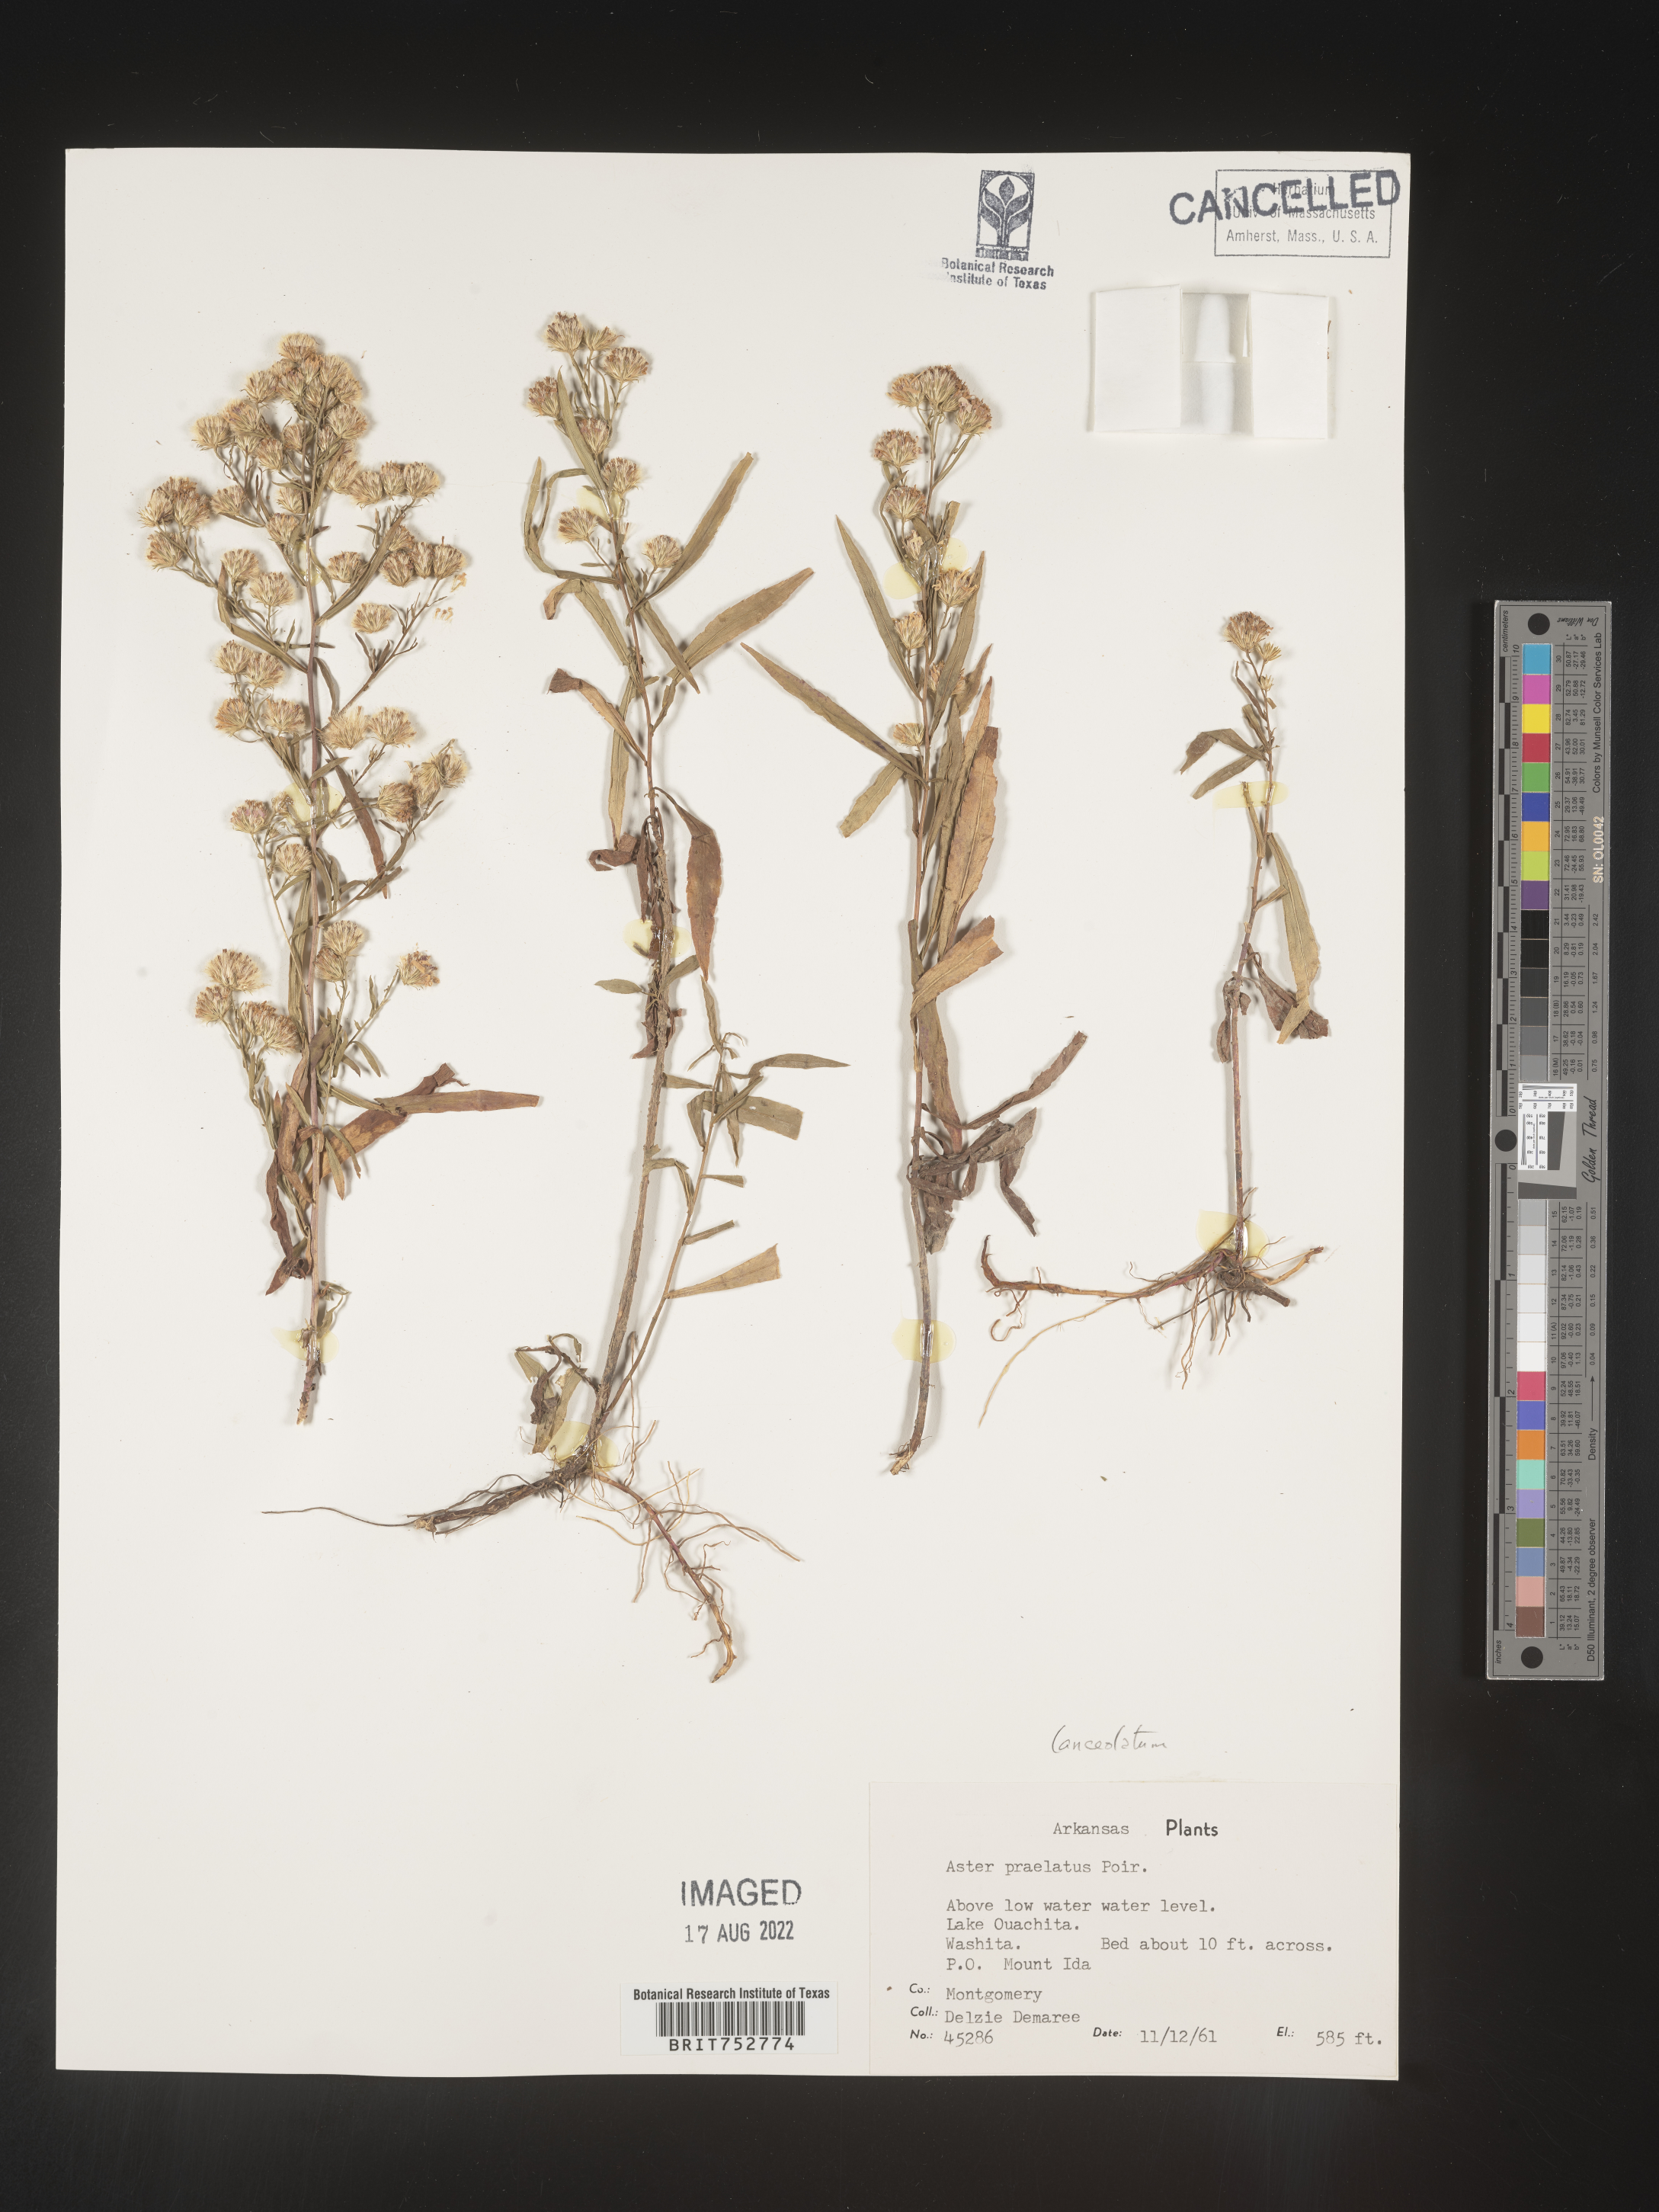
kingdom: Plantae
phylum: Tracheophyta
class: Magnoliopsida
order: Asterales
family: Asteraceae
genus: Symphyotrichum
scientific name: Symphyotrichum lanceolatum
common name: Panicled aster
